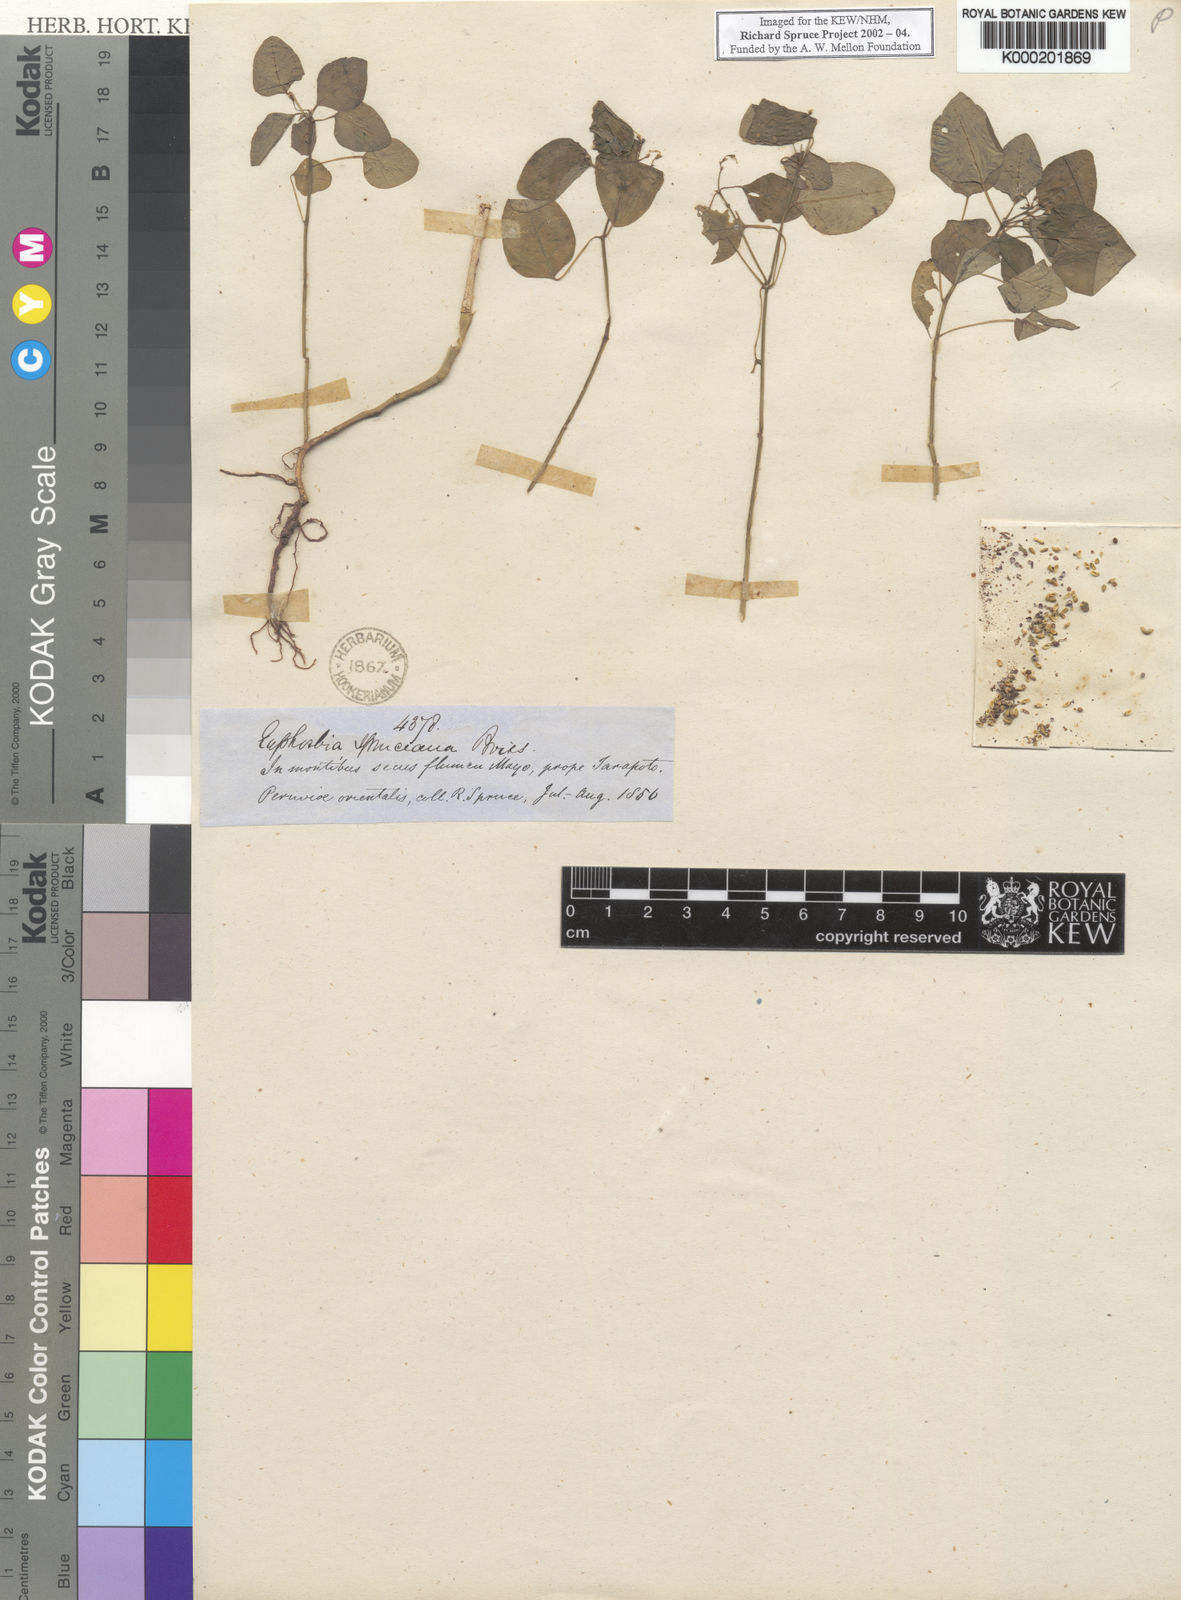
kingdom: Plantae
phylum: Tracheophyta
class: Magnoliopsida
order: Malpighiales
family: Euphorbiaceae
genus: Euphorbia
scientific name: Euphorbia spruceana
